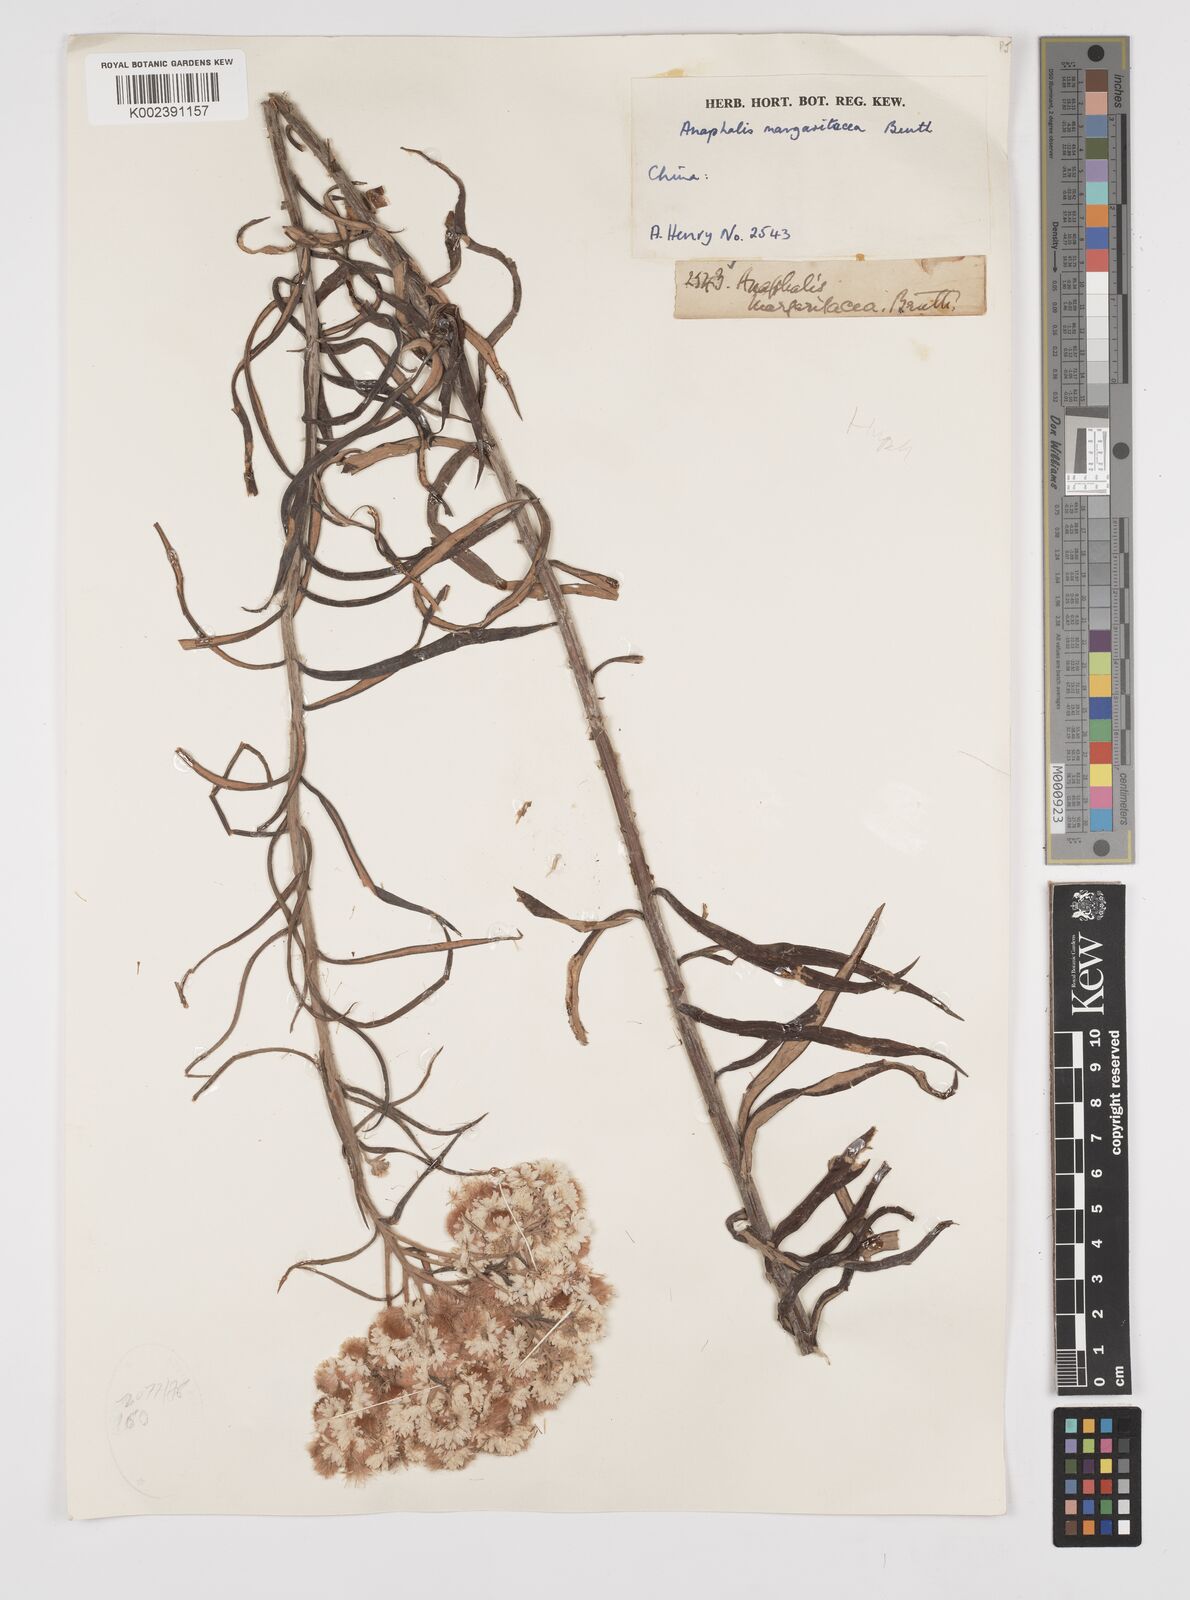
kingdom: Plantae
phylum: Tracheophyta
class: Magnoliopsida
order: Asterales
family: Asteraceae
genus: Anaphalis
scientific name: Anaphalis margaritacea
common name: Pearly everlasting
